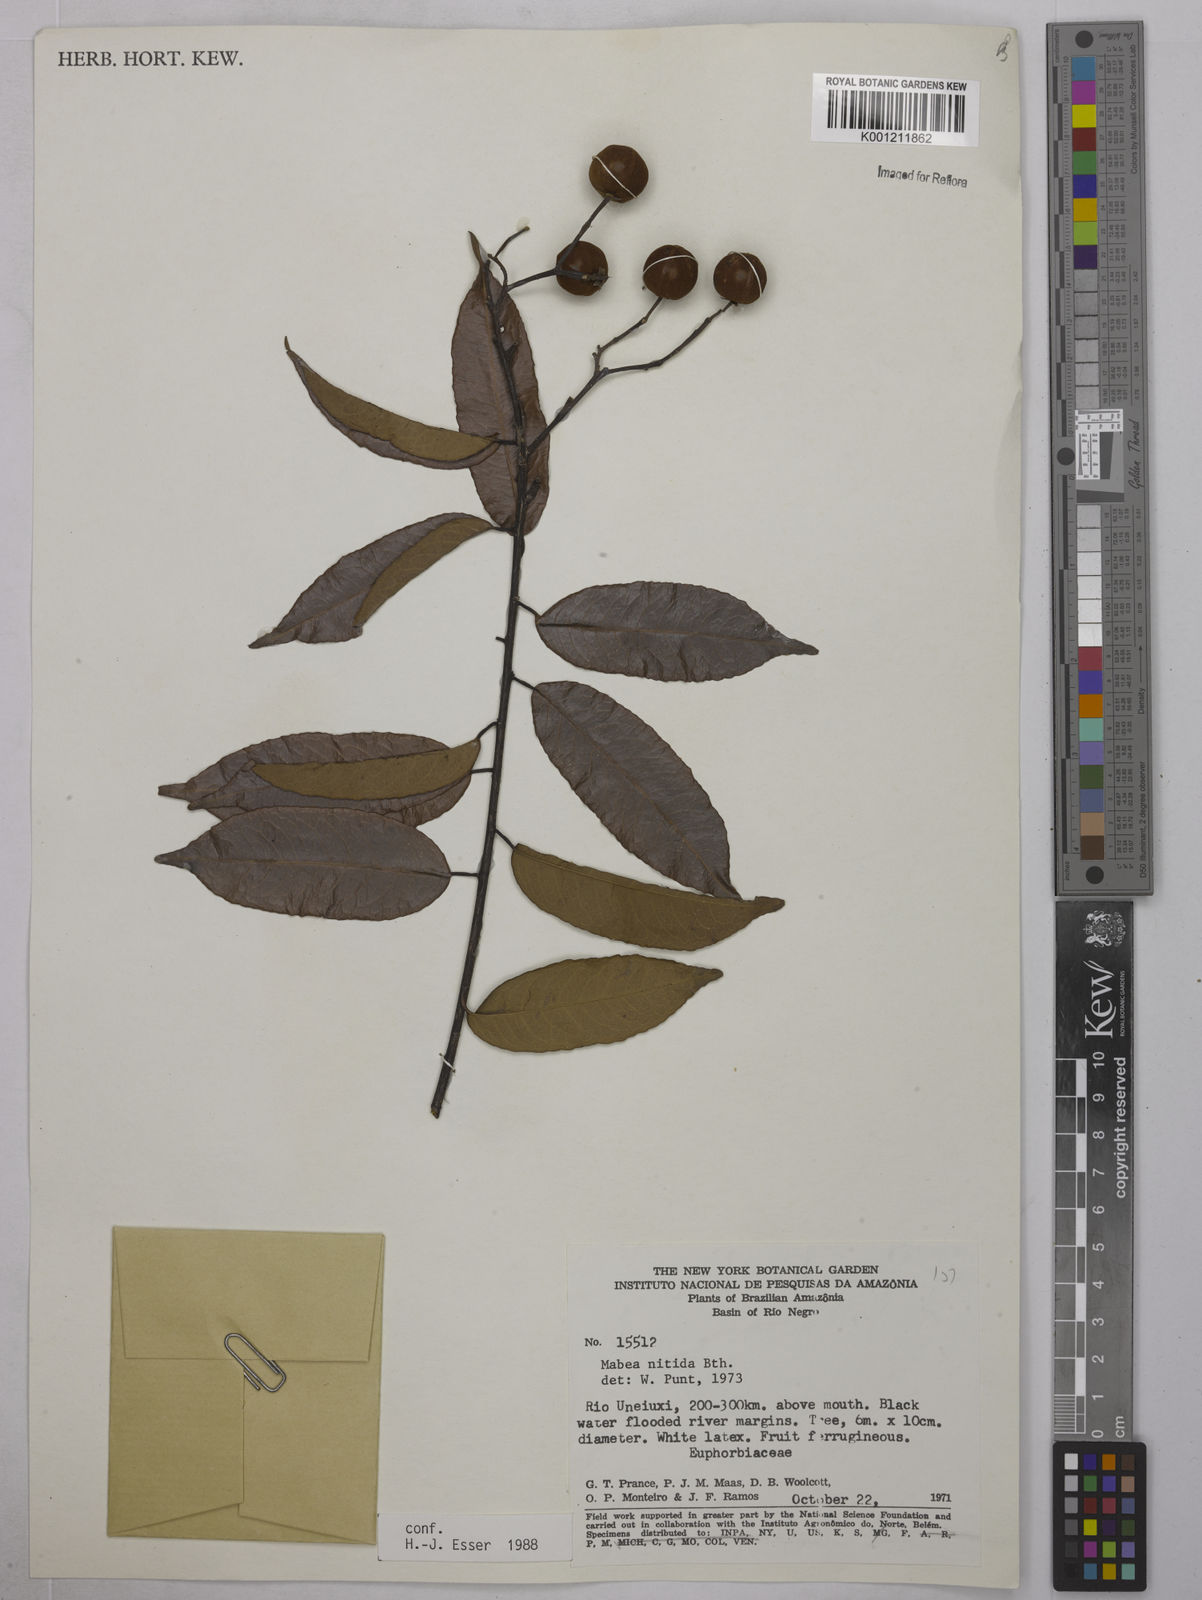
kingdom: Plantae
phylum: Tracheophyta
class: Magnoliopsida
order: Malpighiales
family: Euphorbiaceae
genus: Mabea
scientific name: Mabea nitida
